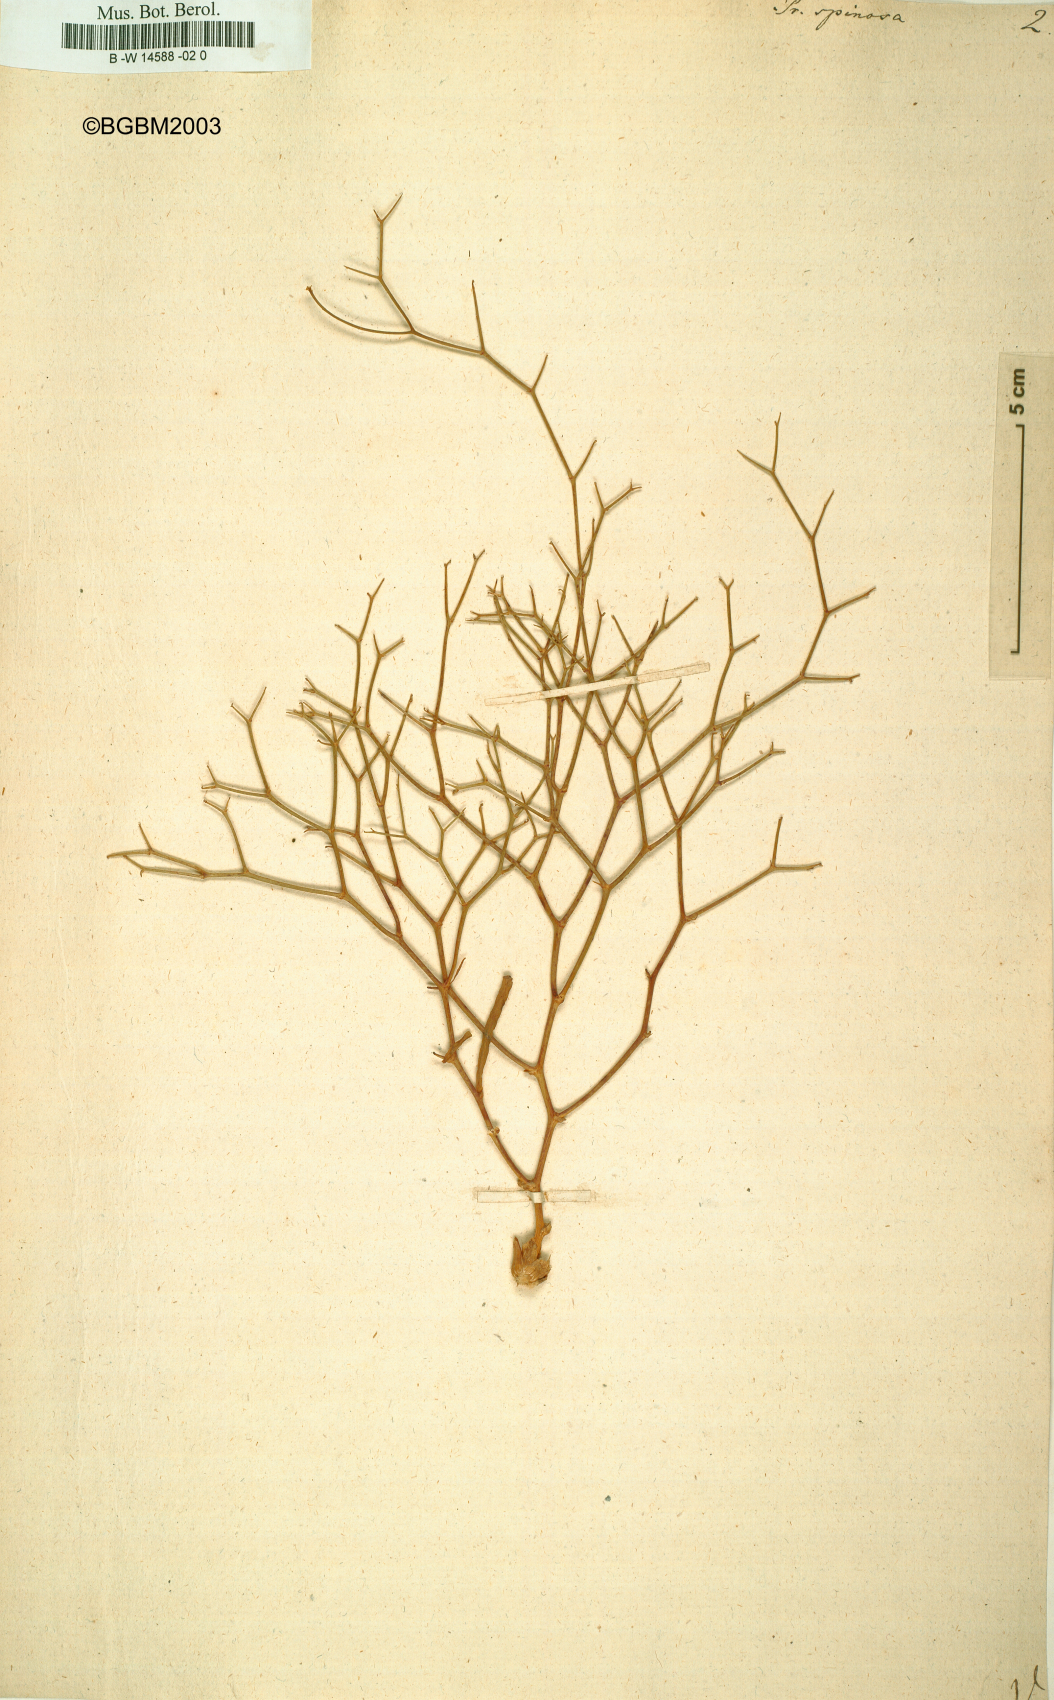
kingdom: Plantae
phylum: Tracheophyta
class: Magnoliopsida
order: Asterales
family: Asteraceae
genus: Prenanthes
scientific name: Prenanthes spinosa
